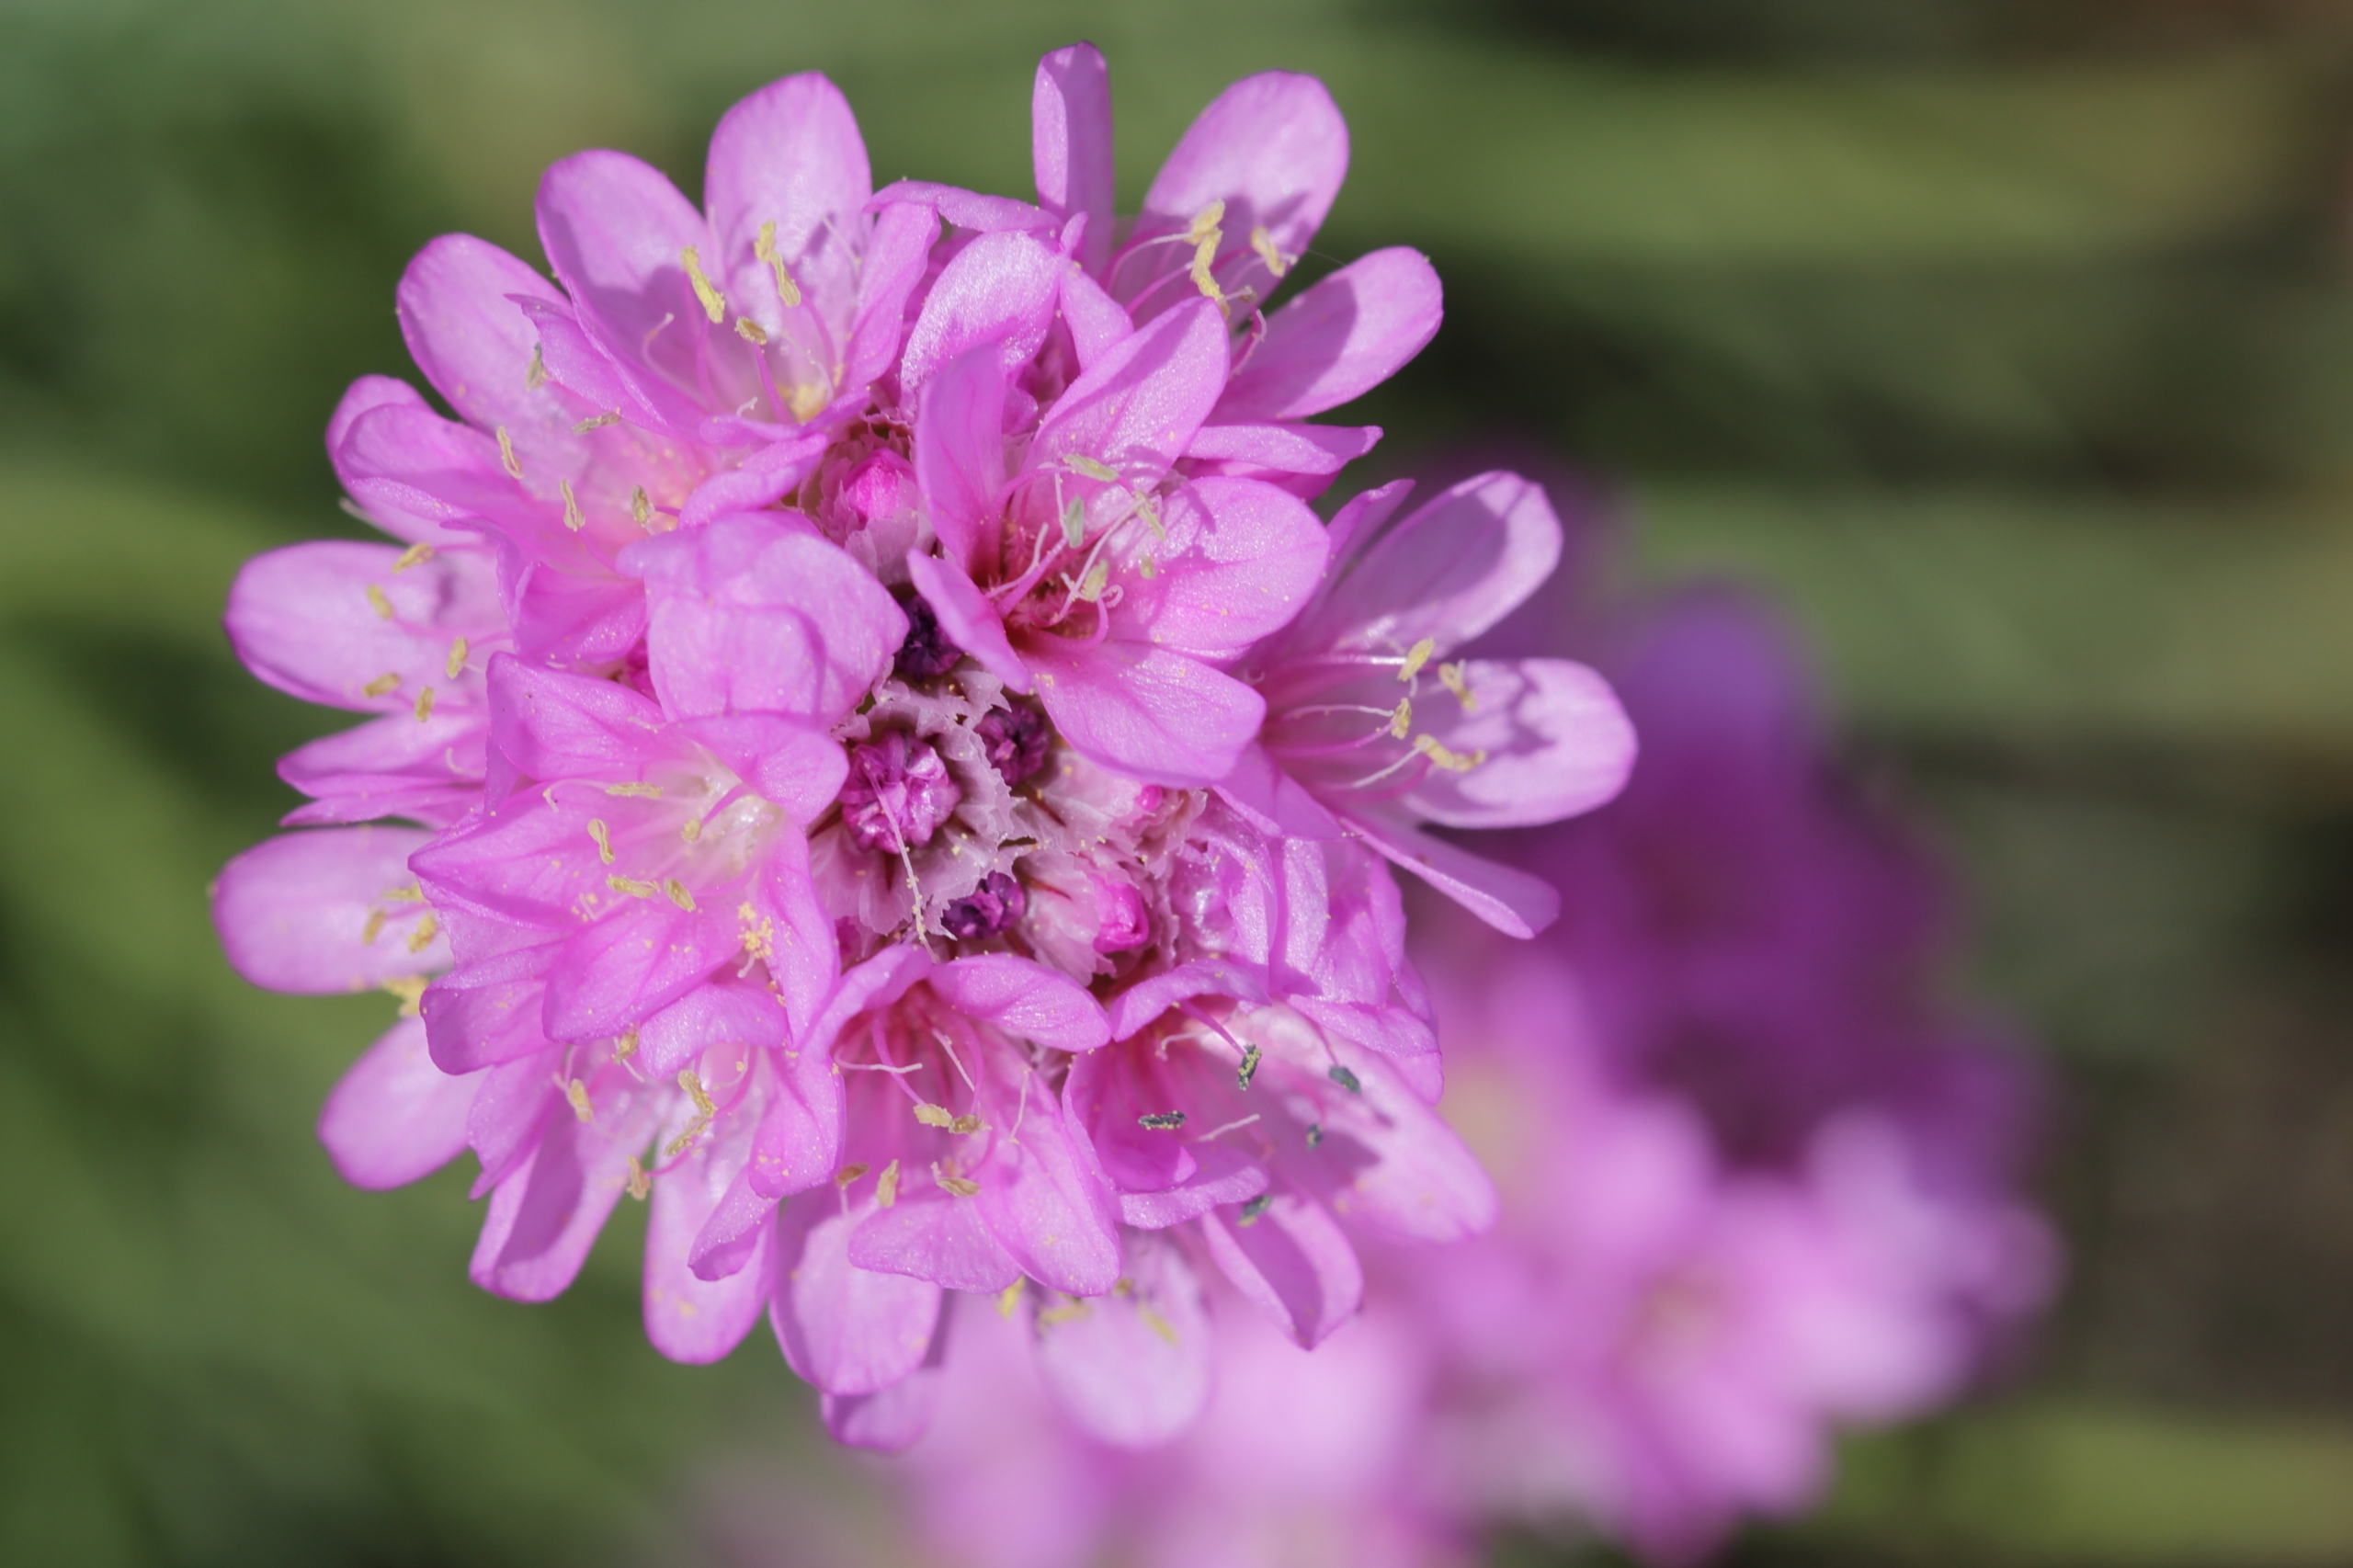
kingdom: Plantae
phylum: Tracheophyta
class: Magnoliopsida
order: Caryophyllales
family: Plumbaginaceae
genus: Armeria
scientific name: Armeria maritima
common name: Engelskgræs
